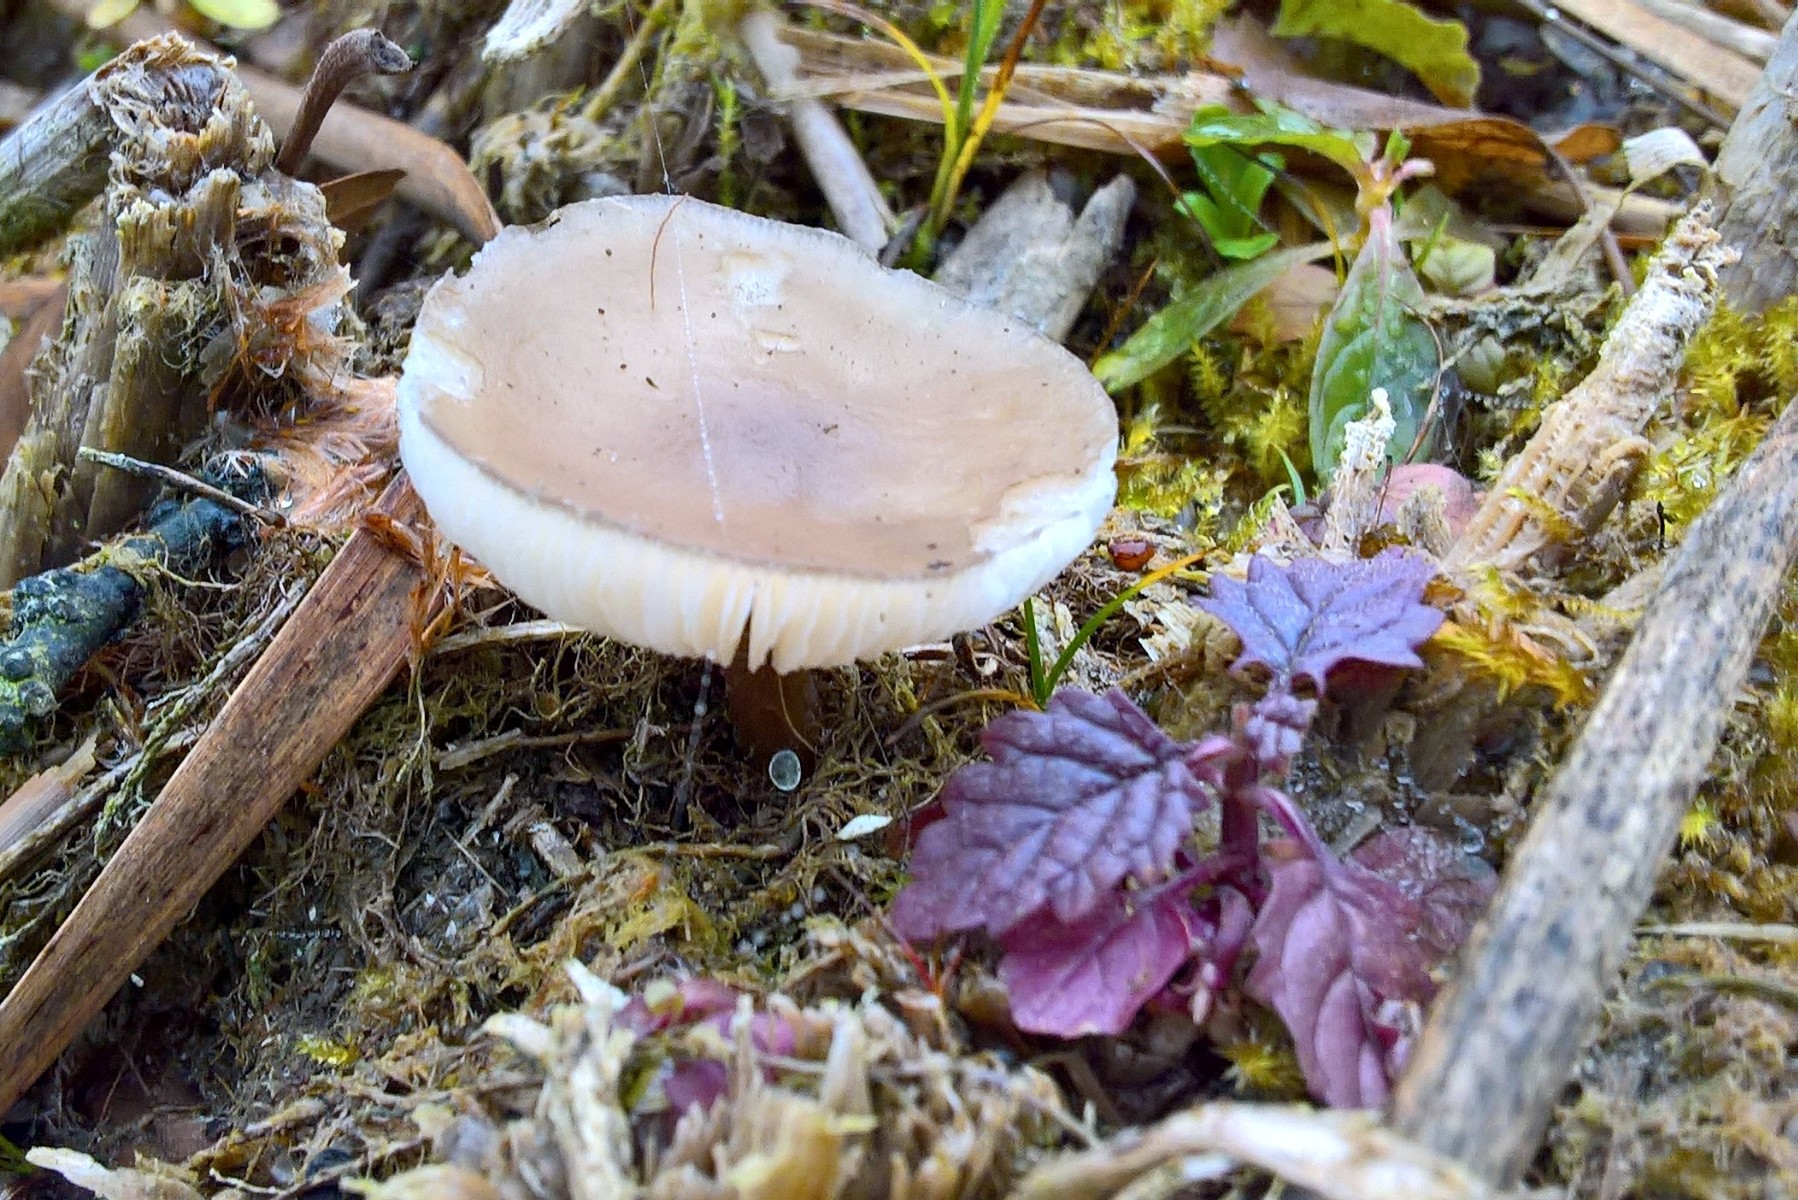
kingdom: Fungi
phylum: Basidiomycota
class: Agaricomycetes
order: Agaricales
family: Omphalotaceae
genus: Rhodocollybia
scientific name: Rhodocollybia asema
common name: horngrå fladhat
